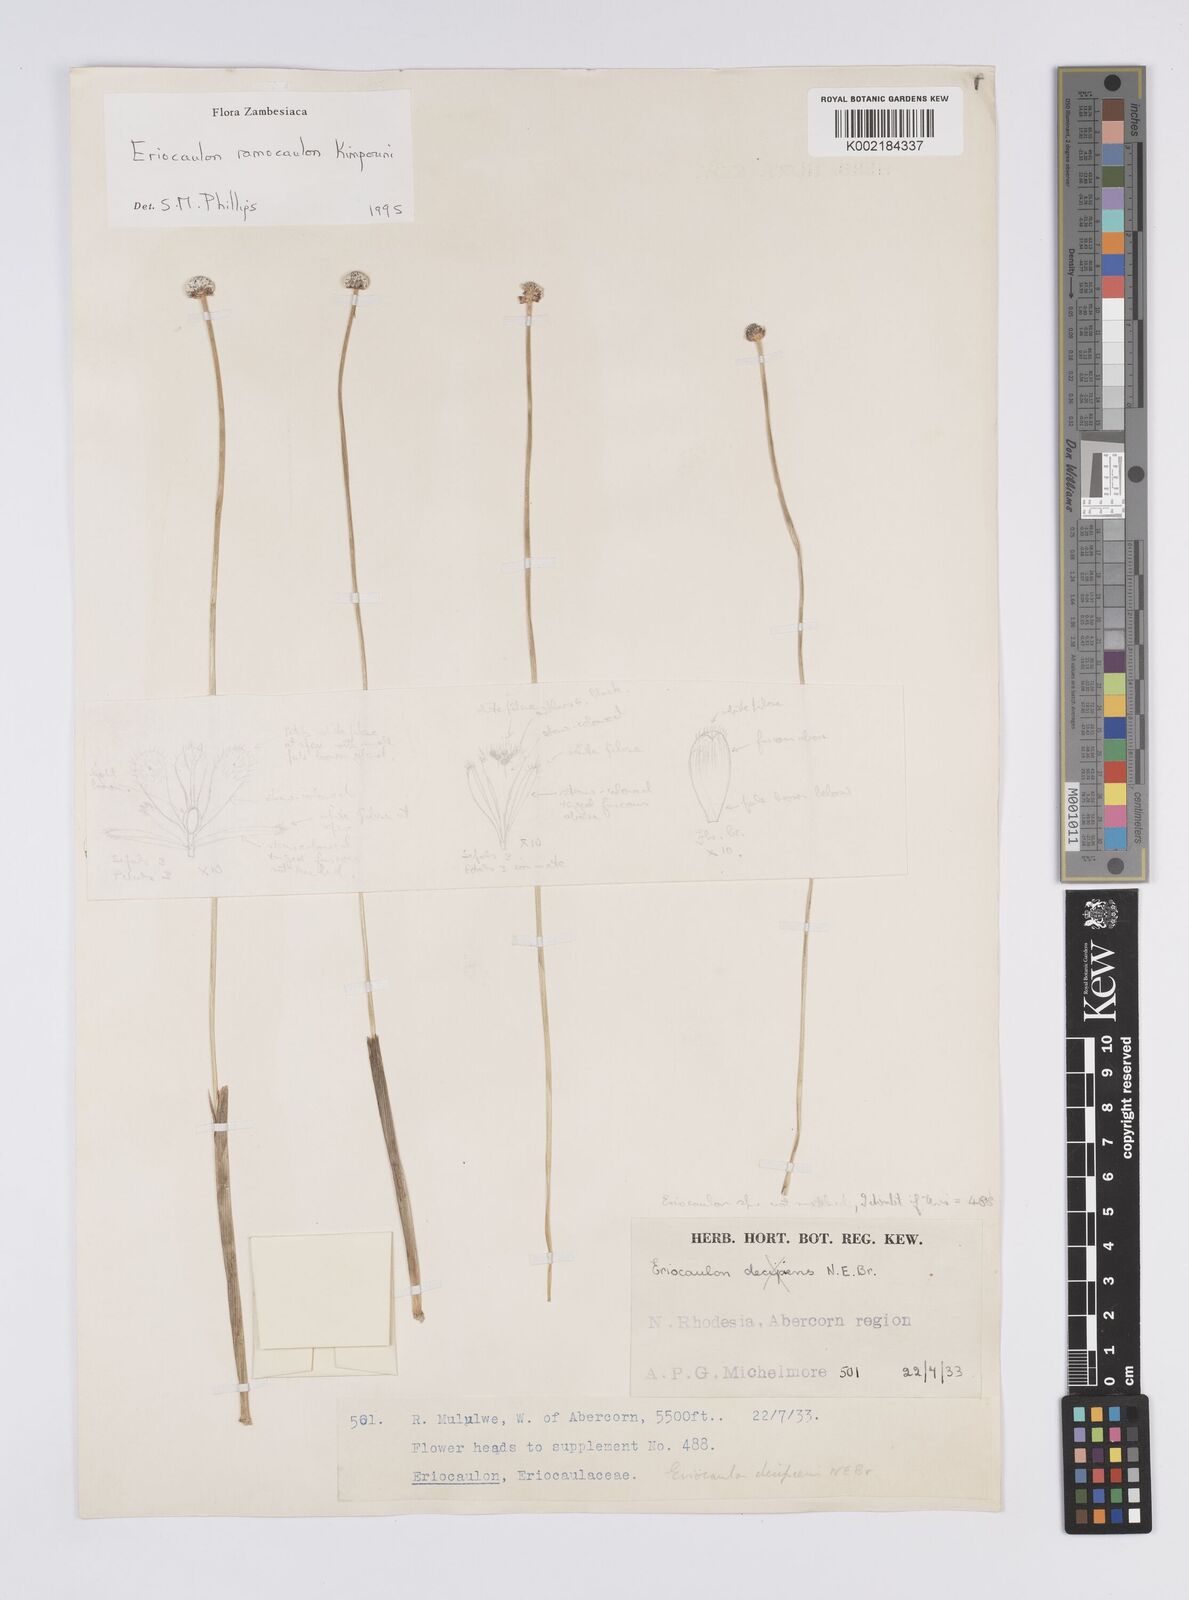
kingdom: Plantae
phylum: Tracheophyta
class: Liliopsida
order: Poales
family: Eriocaulaceae
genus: Eriocaulon
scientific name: Eriocaulon ramocaulon
